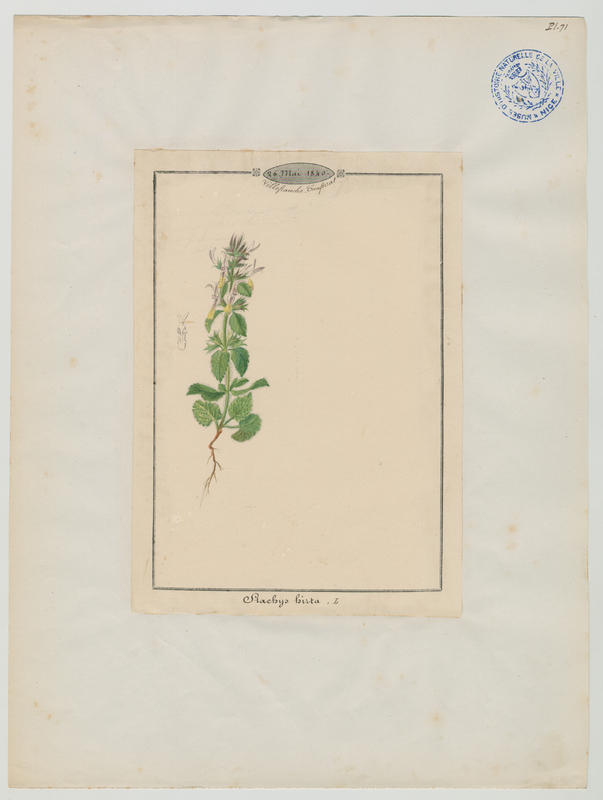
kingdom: Plantae
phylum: Tracheophyta
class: Magnoliopsida
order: Lamiales
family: Lamiaceae
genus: Stachys
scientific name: Stachys ocymastrum
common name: Italian hedgenettle
